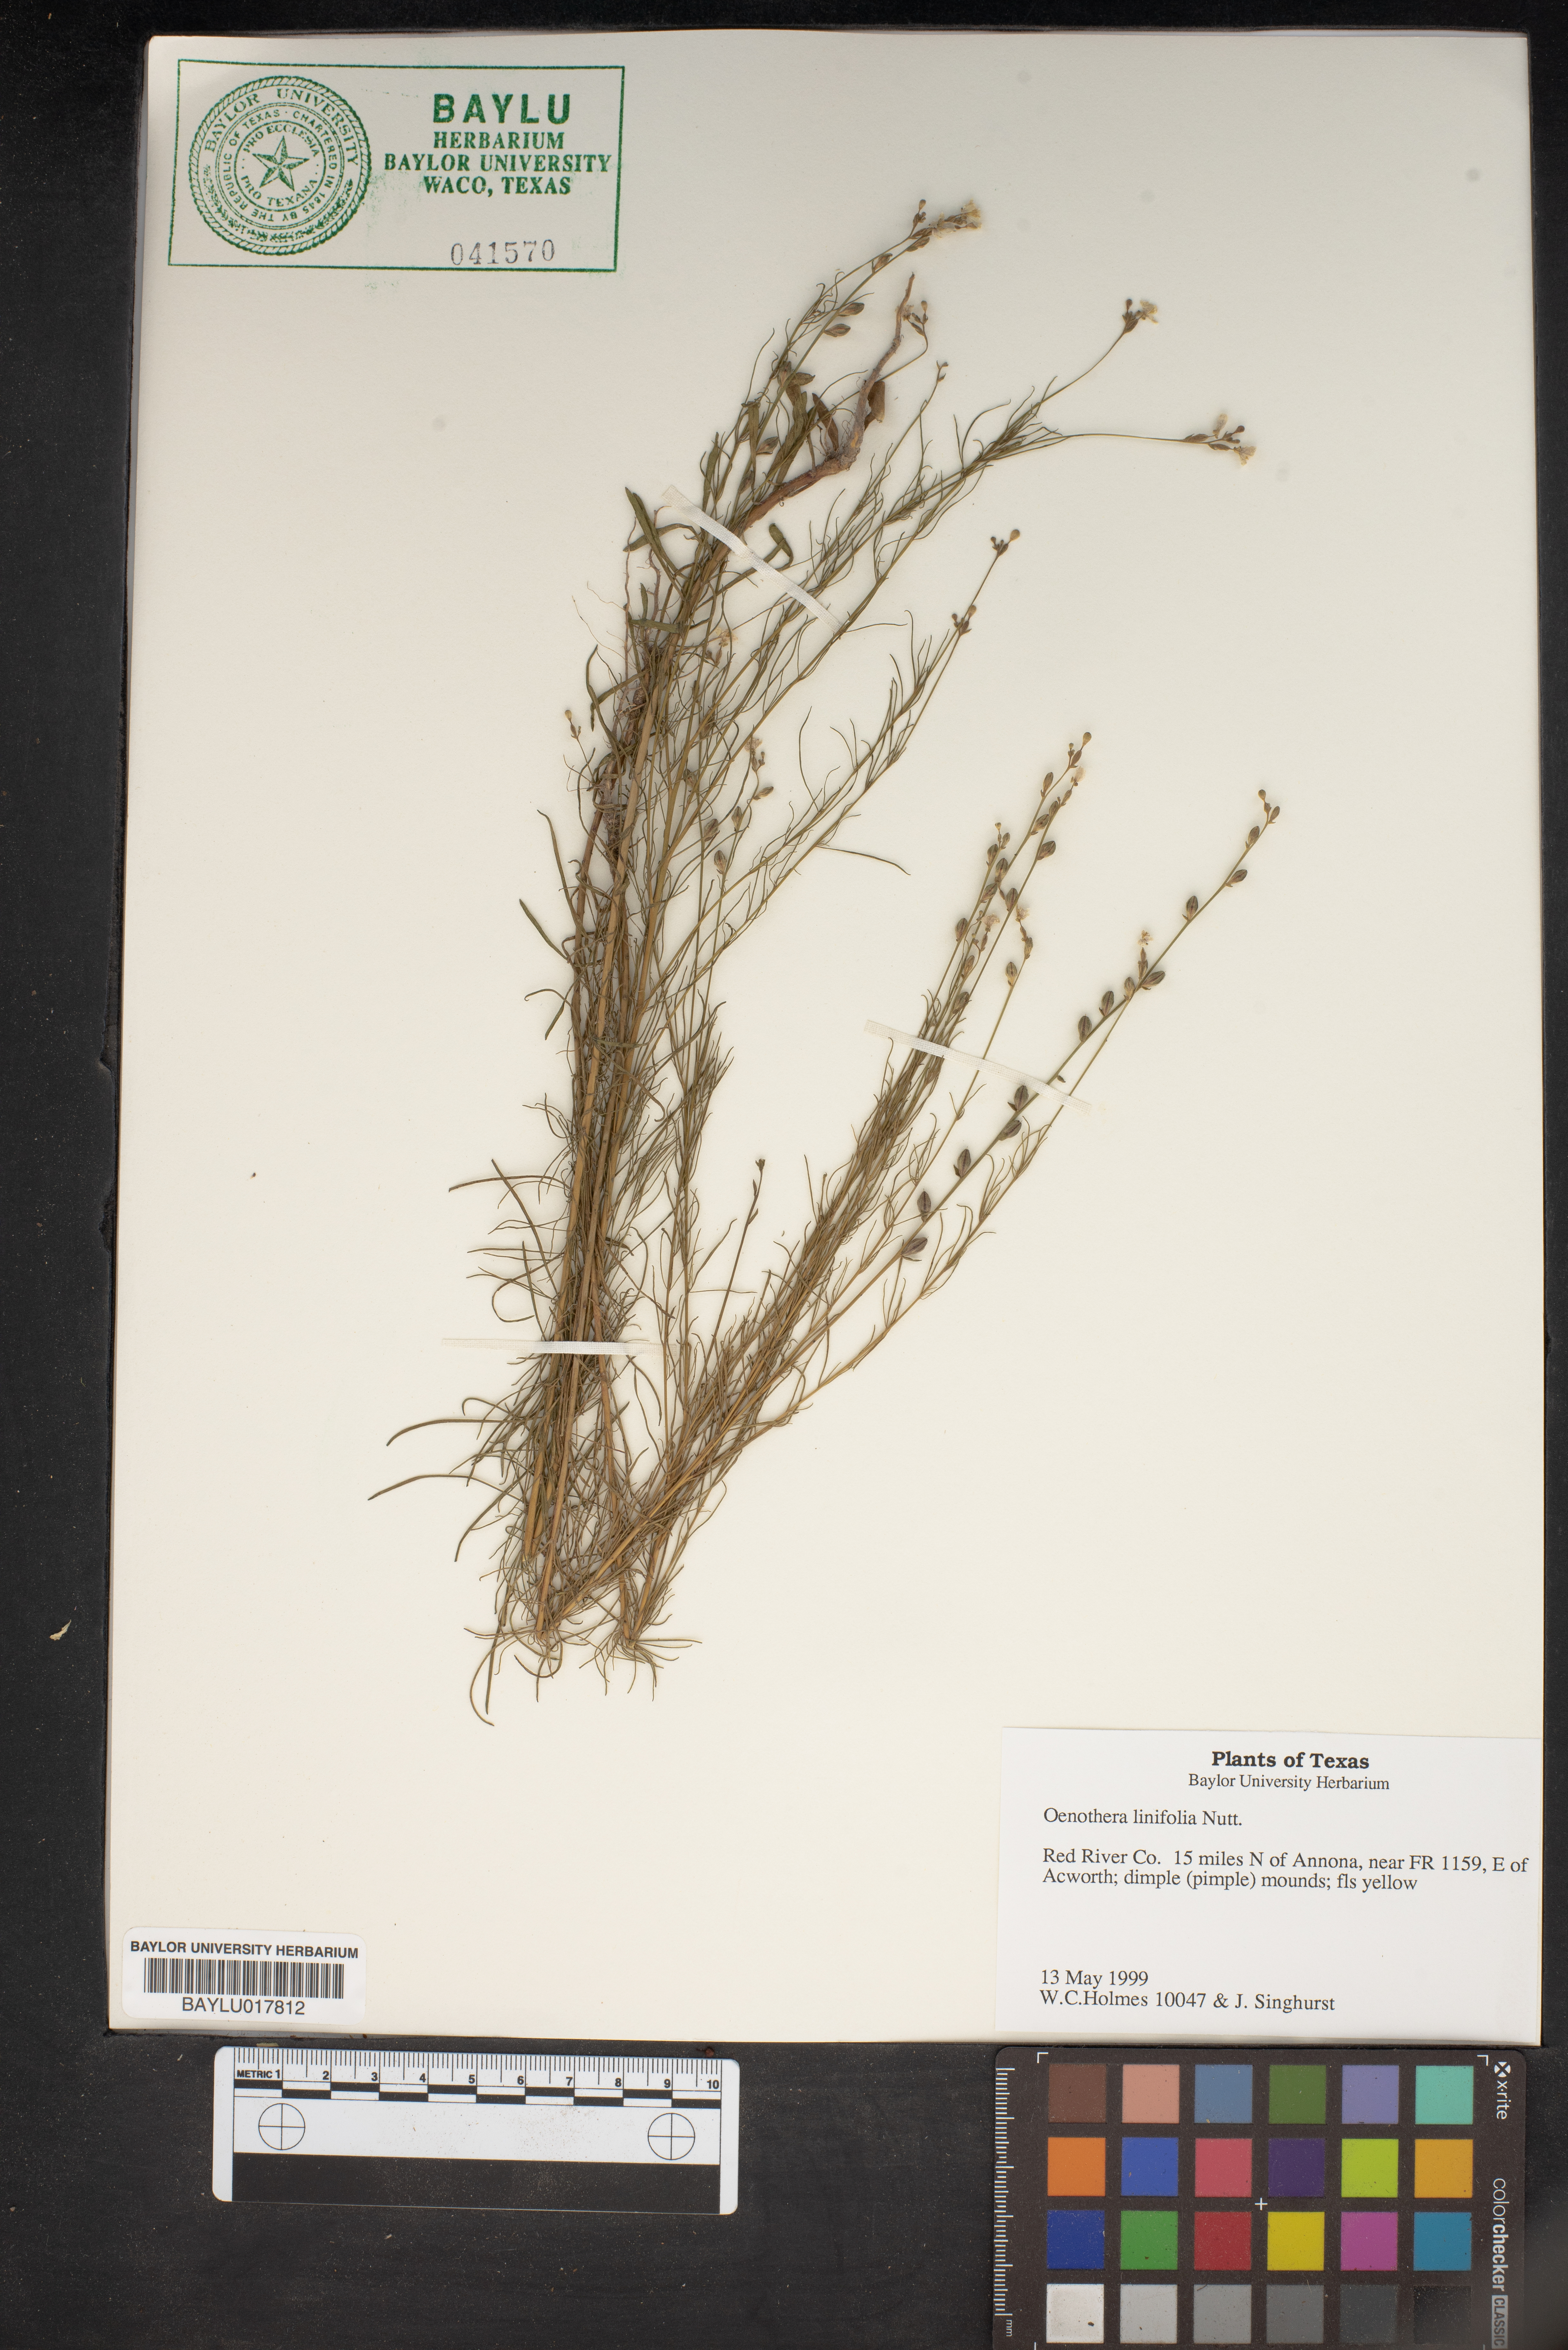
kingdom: Plantae
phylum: Tracheophyta
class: Magnoliopsida
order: Myrtales
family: Onagraceae
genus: Oenothera
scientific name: Oenothera linifolia
